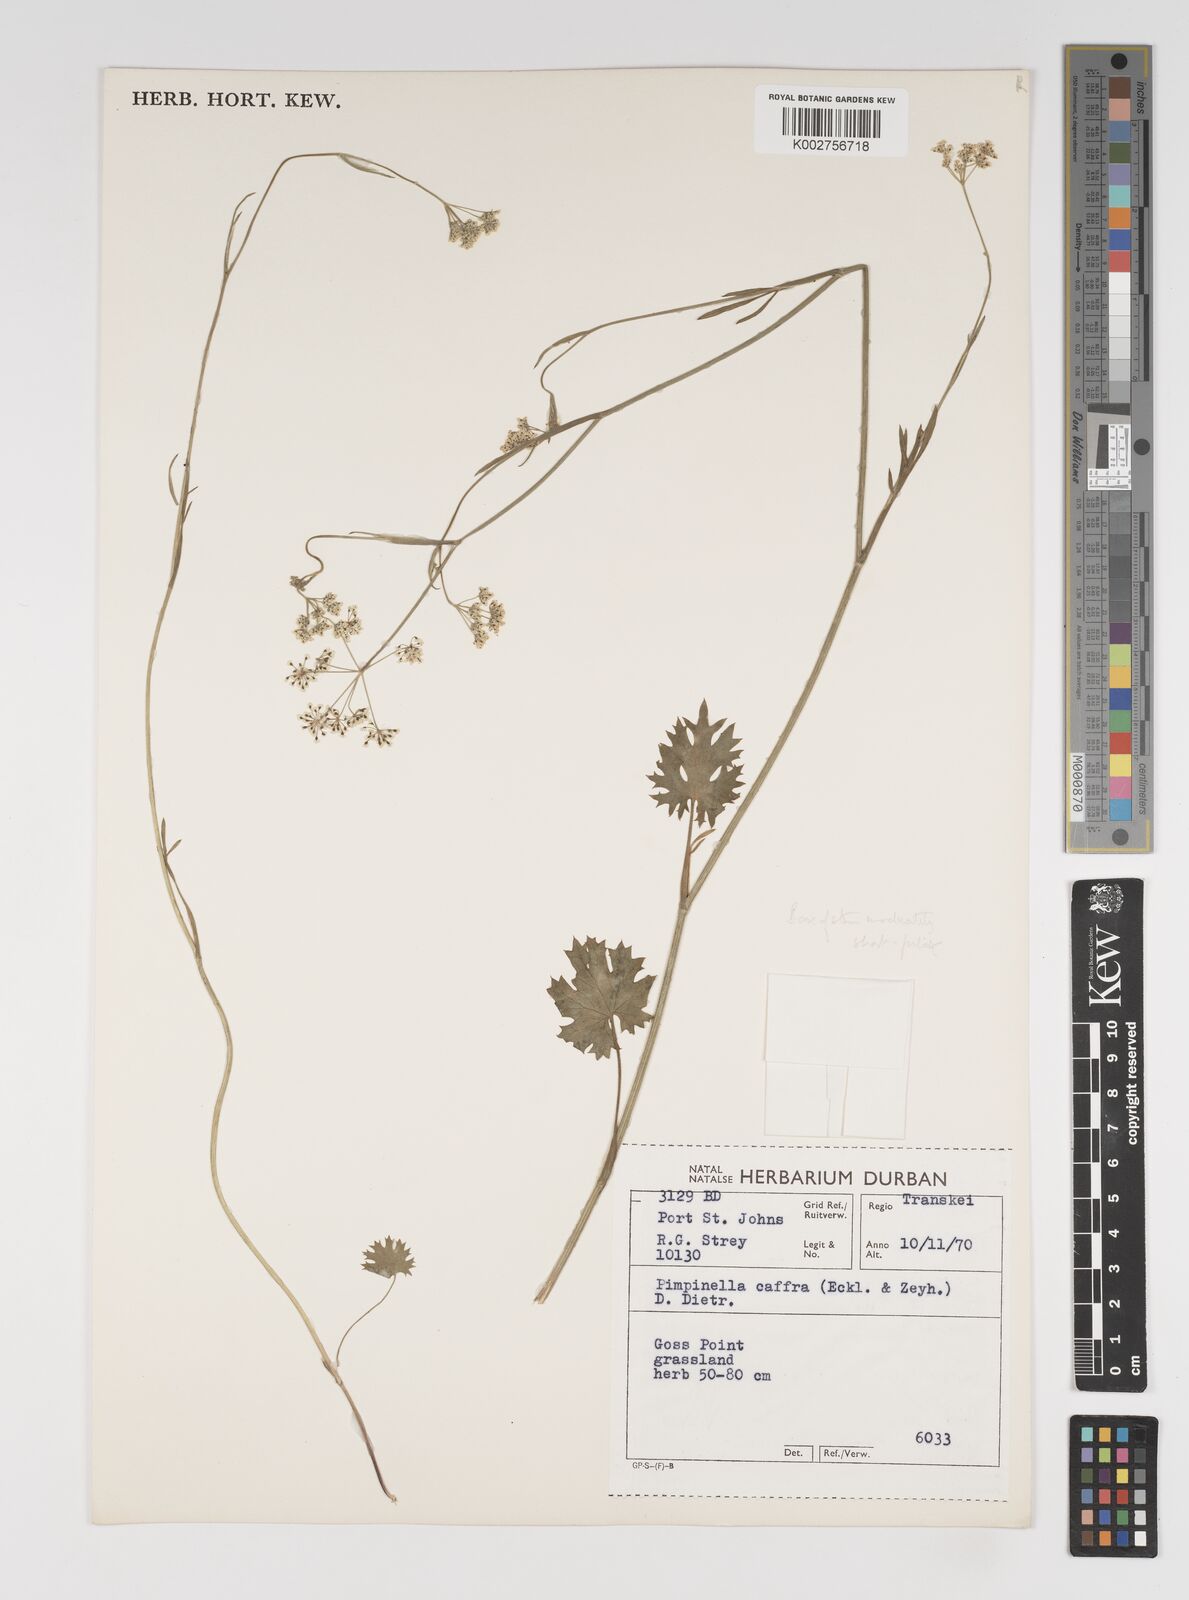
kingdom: Plantae
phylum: Tracheophyta
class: Magnoliopsida
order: Apiales
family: Apiaceae
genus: Pimpinella
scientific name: Pimpinella
